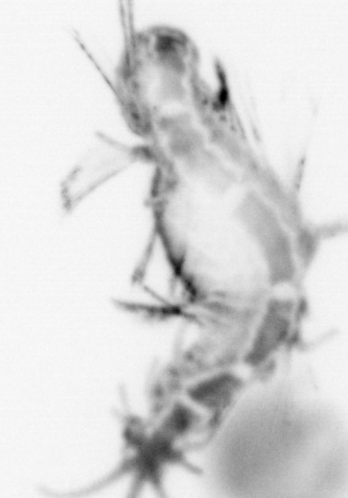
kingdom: Animalia
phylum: Annelida
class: Polychaeta
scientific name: Polychaeta
